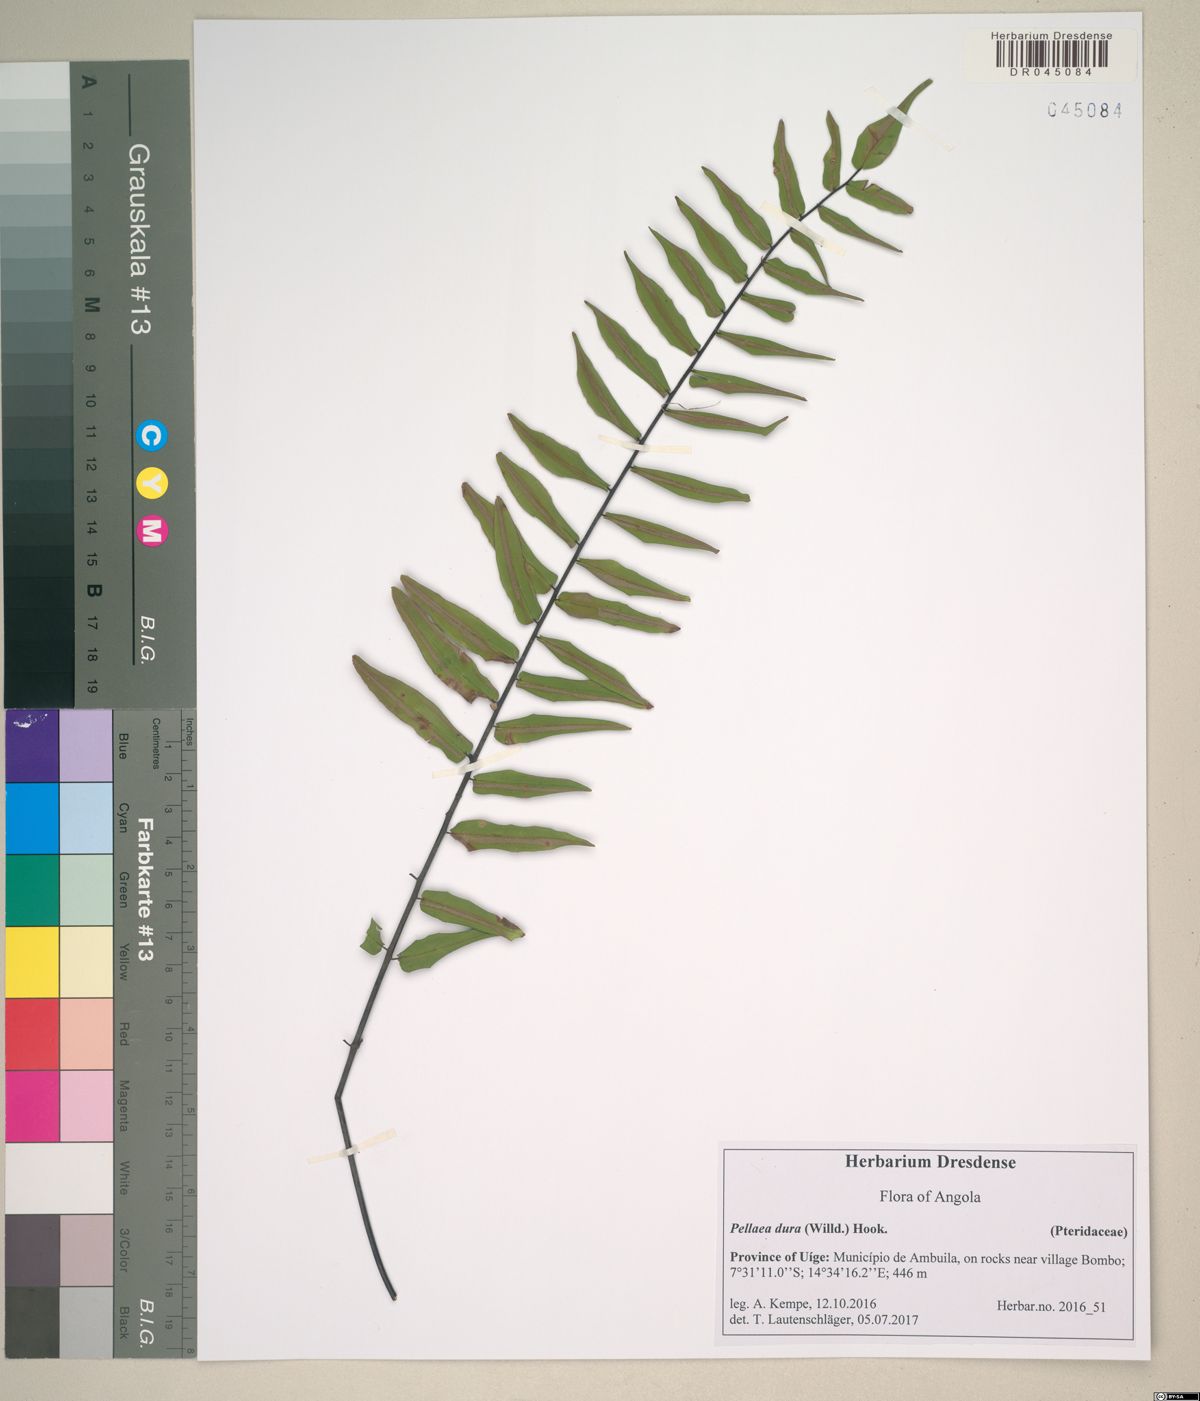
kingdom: Plantae
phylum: Tracheophyta
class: Polypodiopsida
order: Polypodiales
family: Pteridaceae
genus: Pellaea
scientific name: Pellaea pectiniformis
